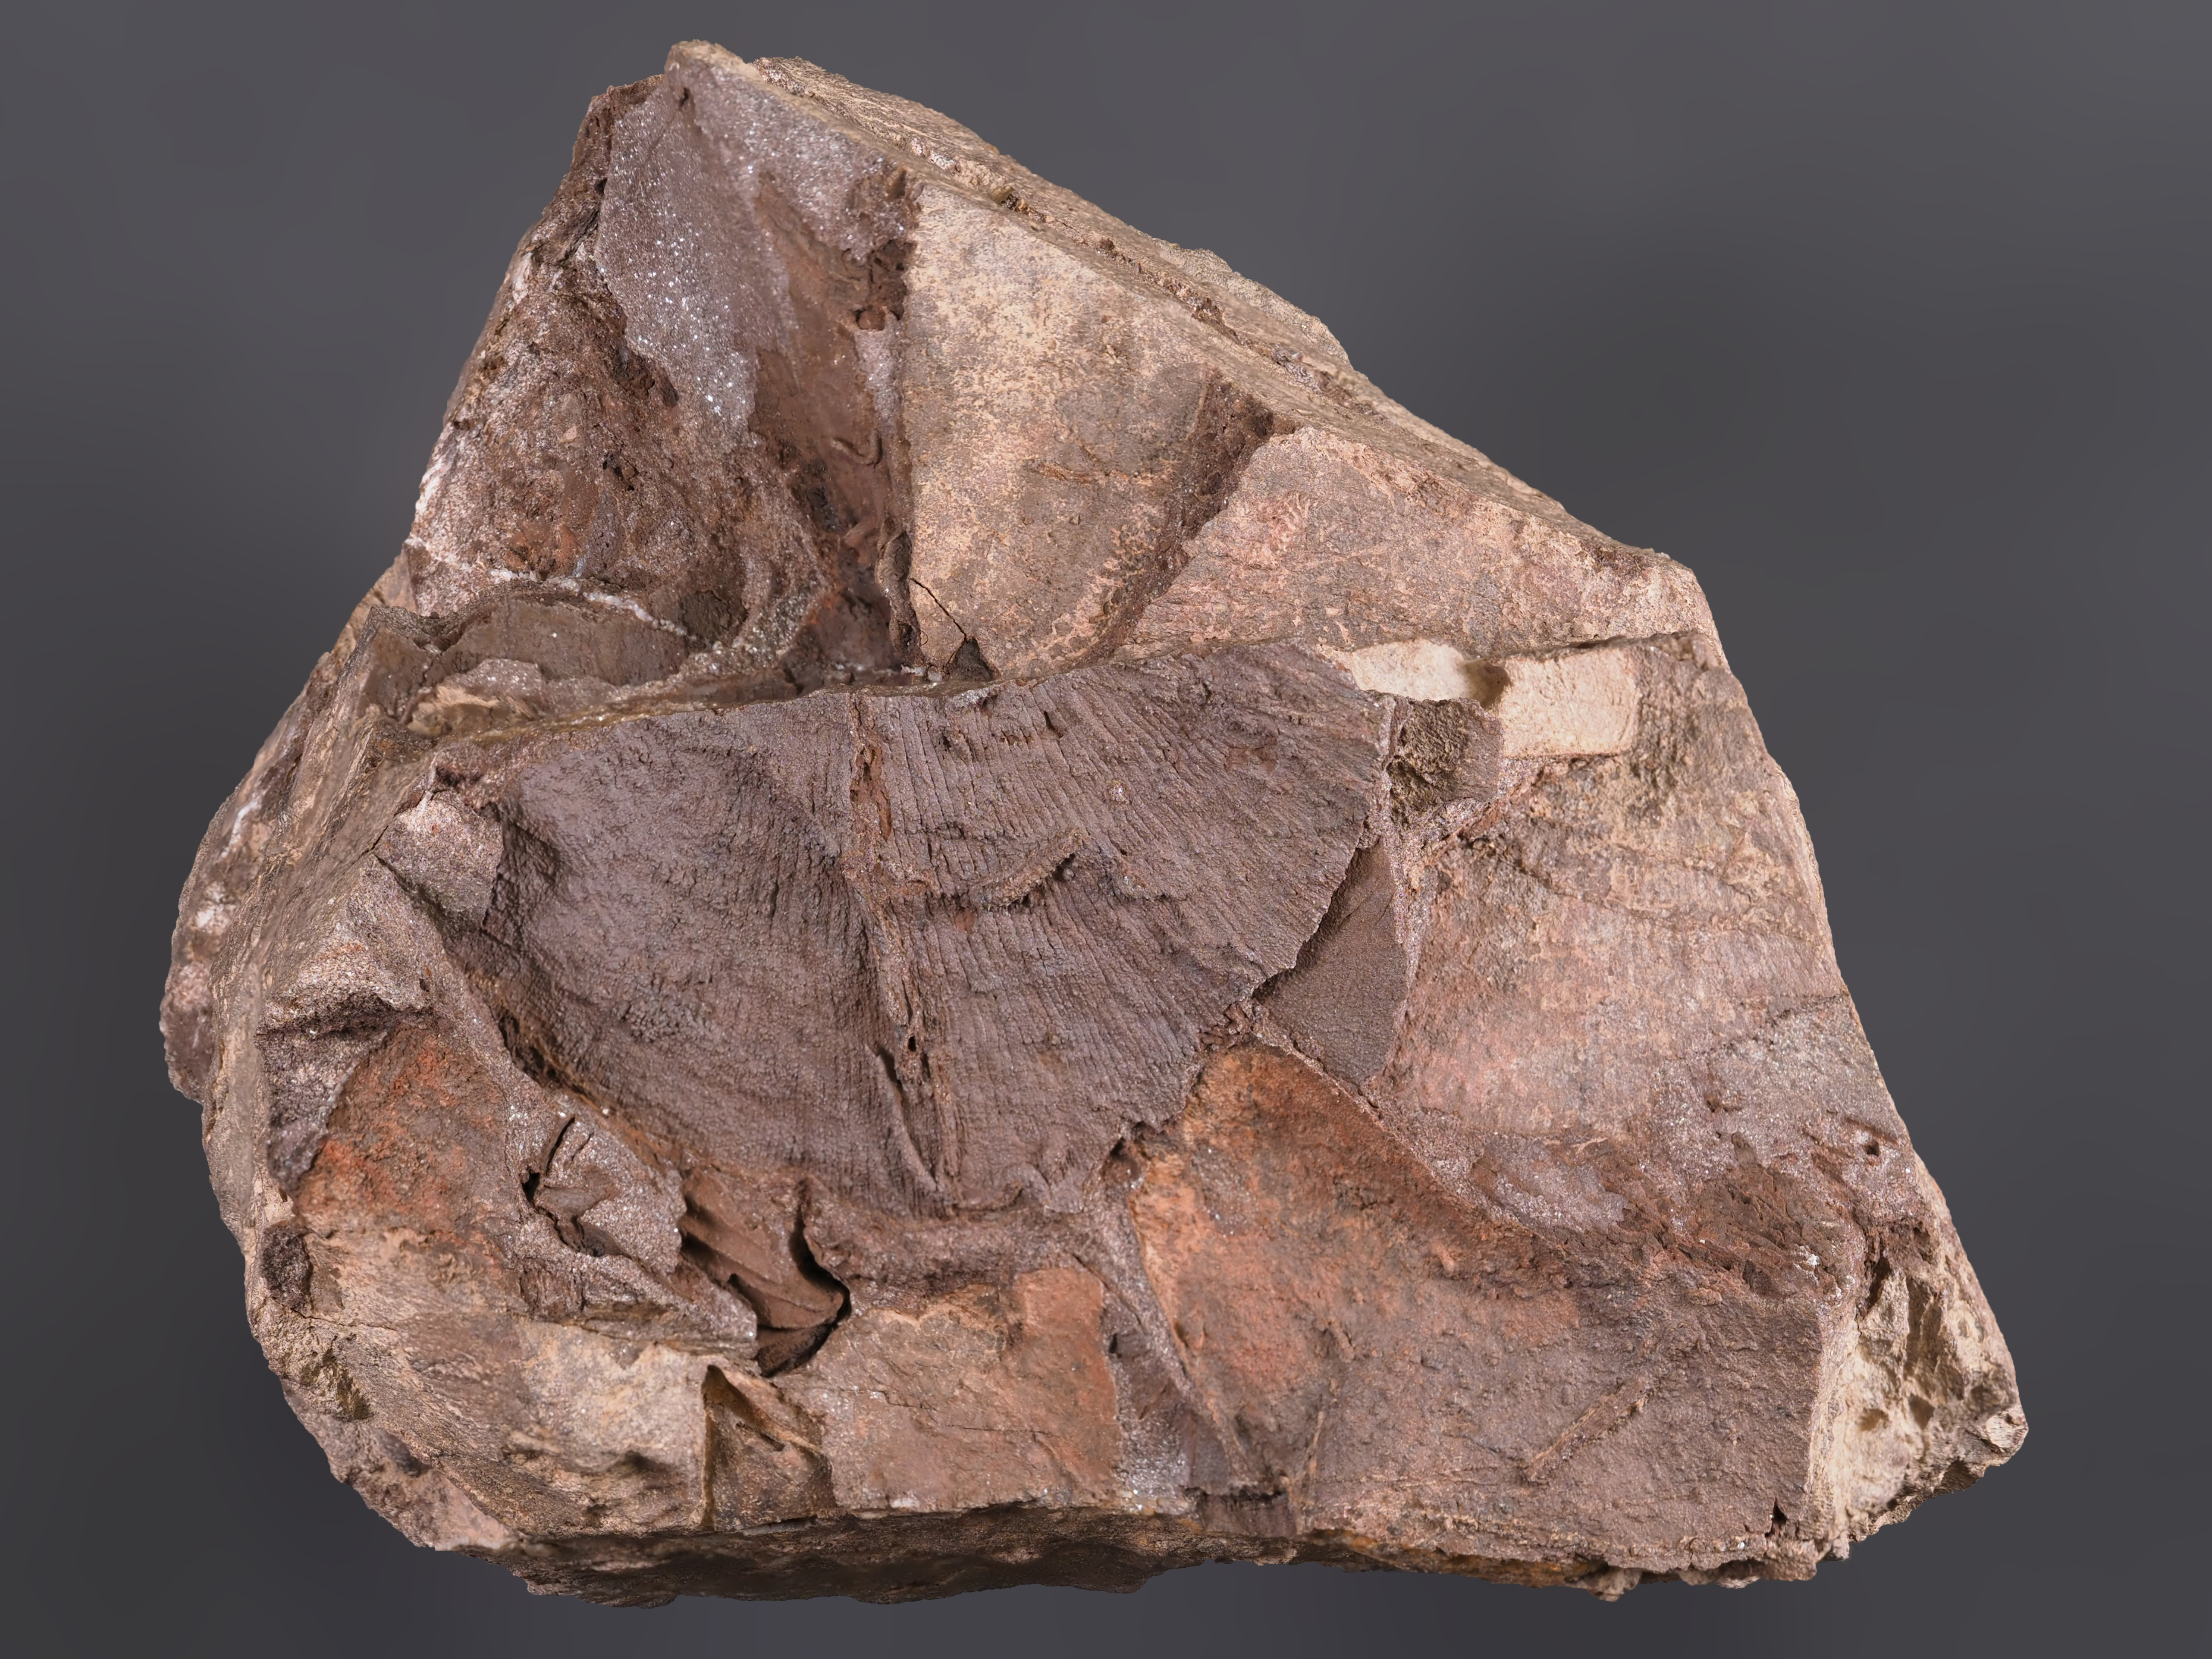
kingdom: Animalia
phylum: Brachiopoda
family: Leptostrophiidae
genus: Leptostrophiella
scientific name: Leptostrophiella
